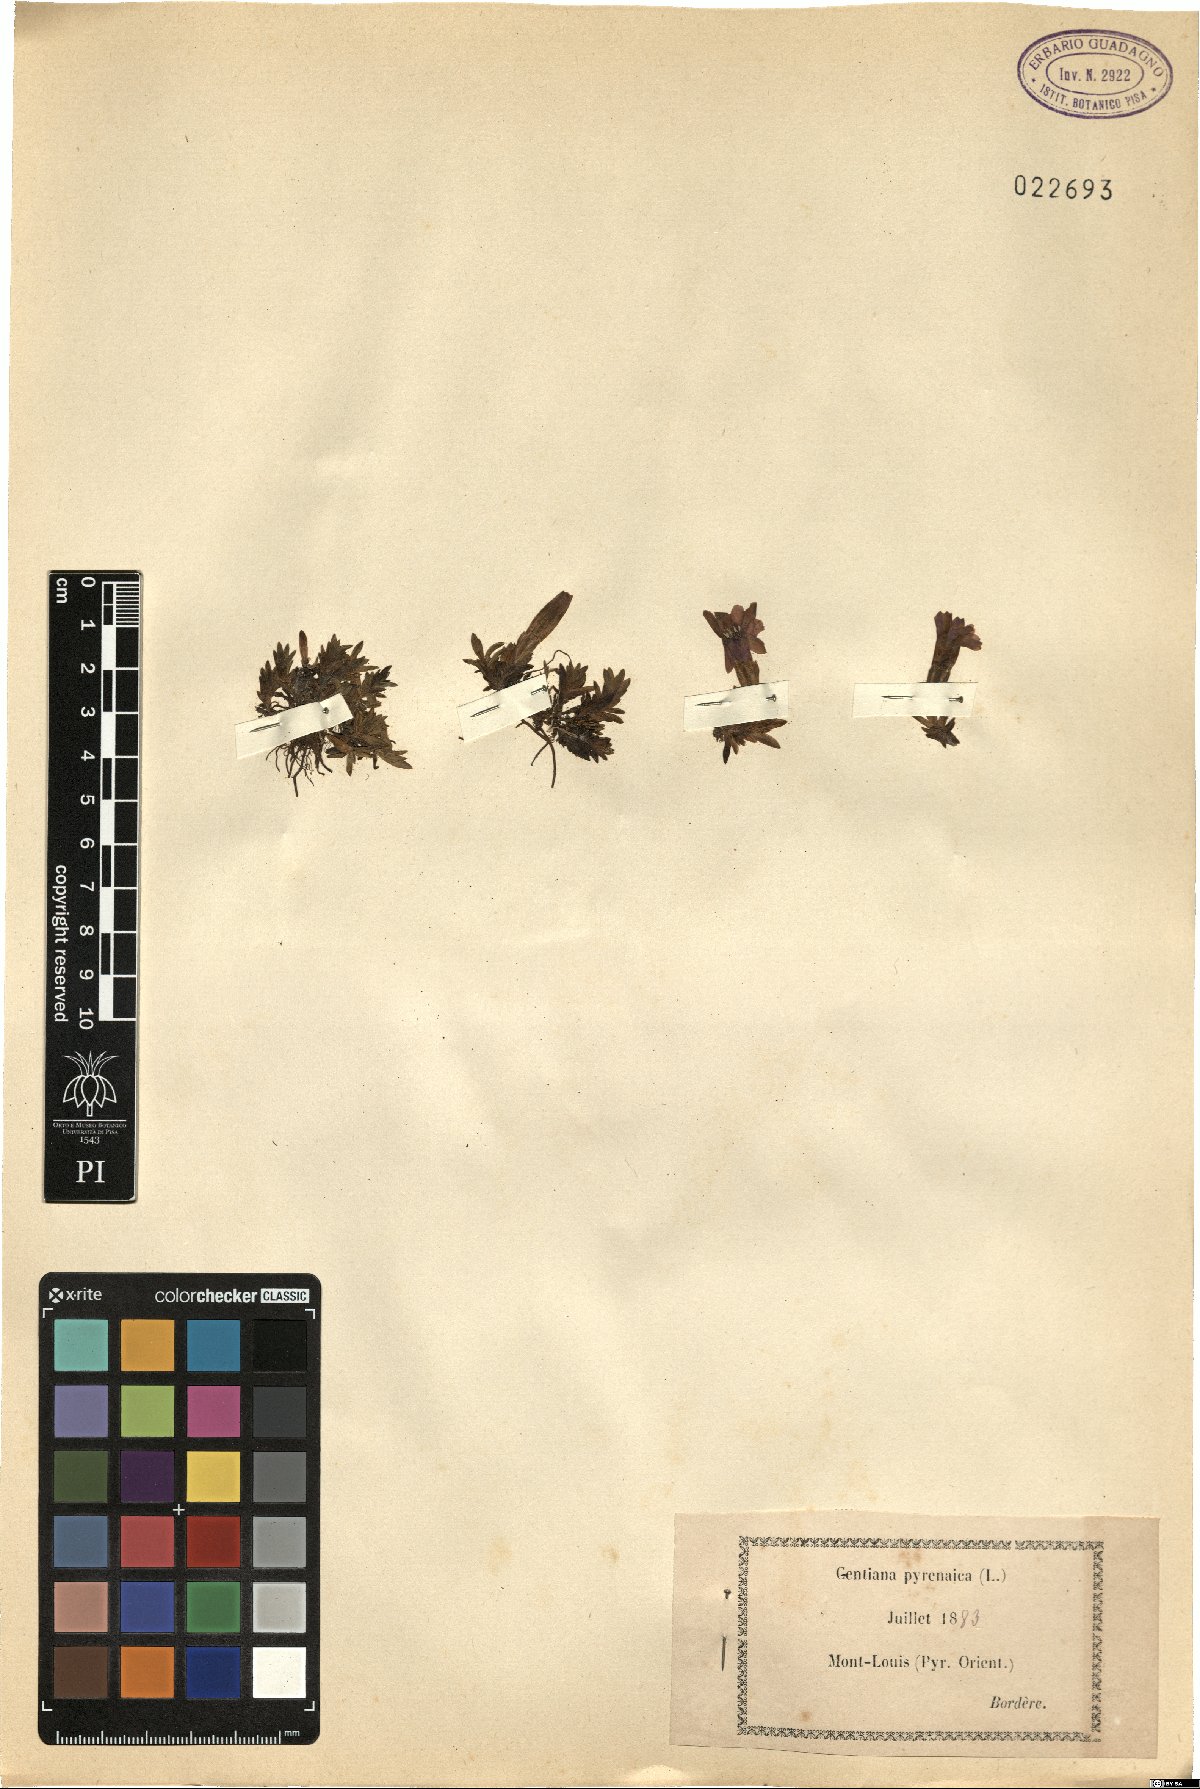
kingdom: Plantae
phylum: Tracheophyta
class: Magnoliopsida
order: Gentianales
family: Gentianaceae
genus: Gentiana
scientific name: Gentiana pyrenaica
